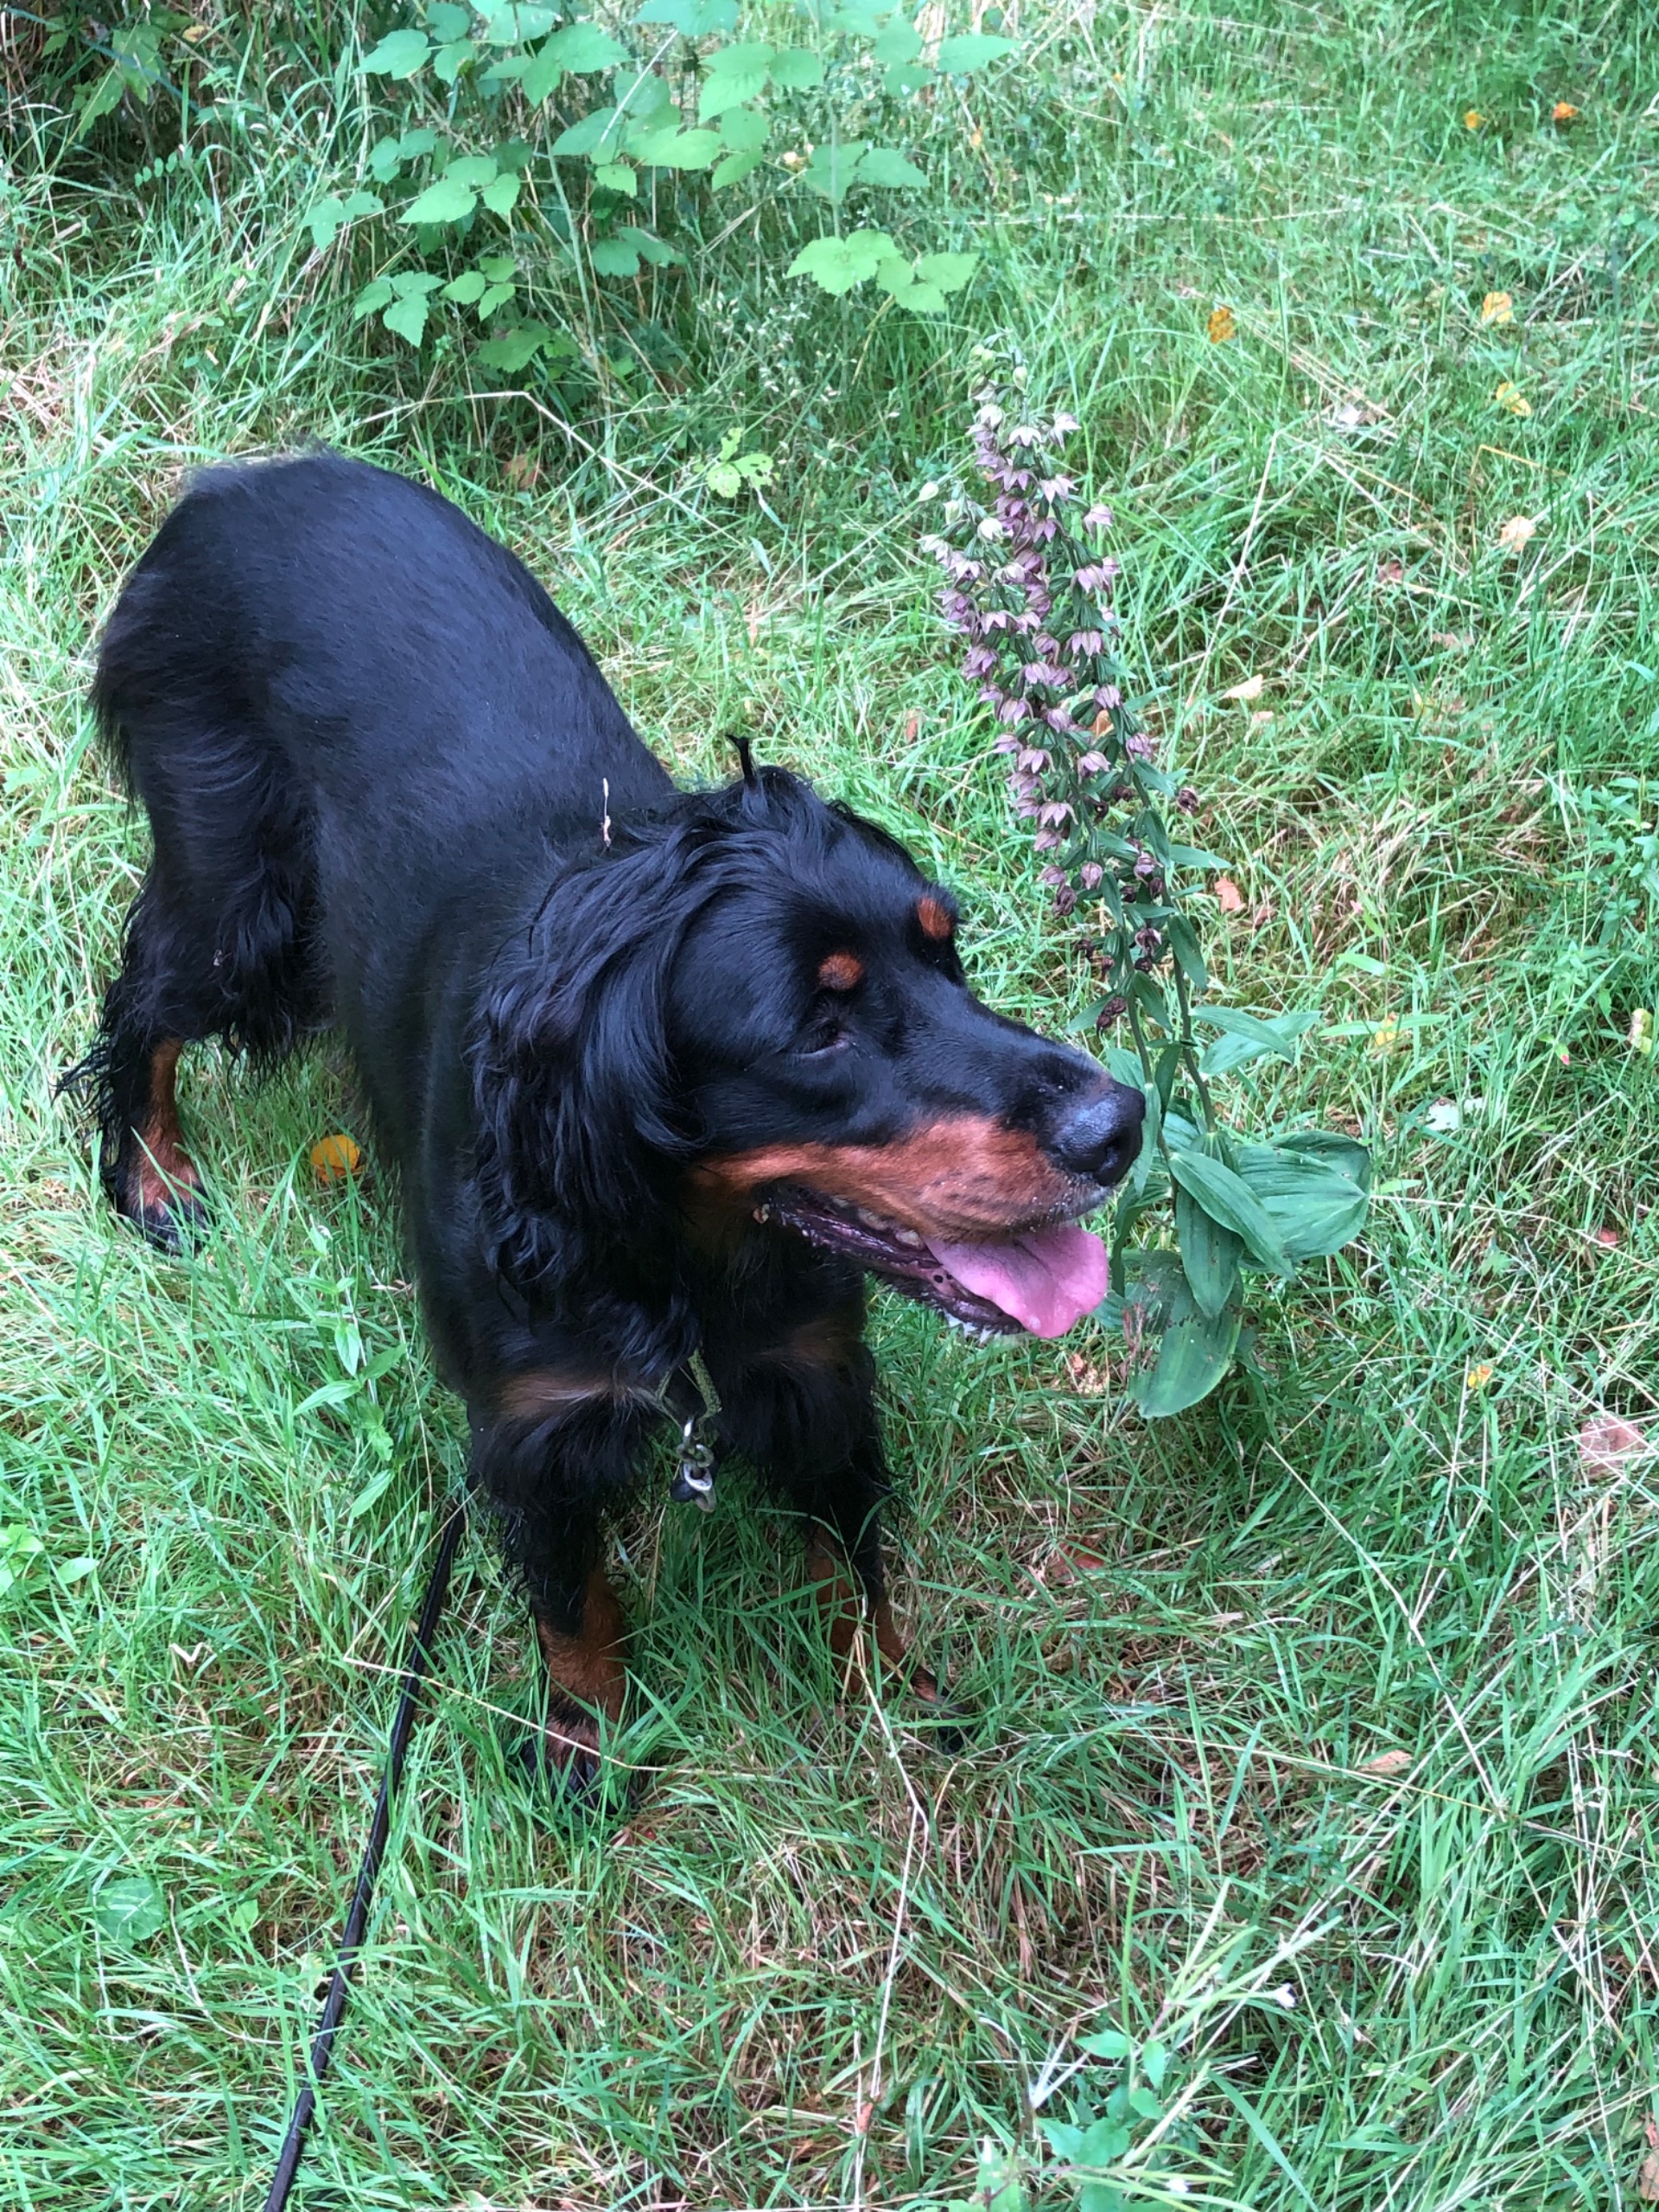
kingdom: Plantae
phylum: Tracheophyta
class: Liliopsida
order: Asparagales
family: Orchidaceae
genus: Epipactis
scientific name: Epipactis helleborine
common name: Skov-hullæbe
